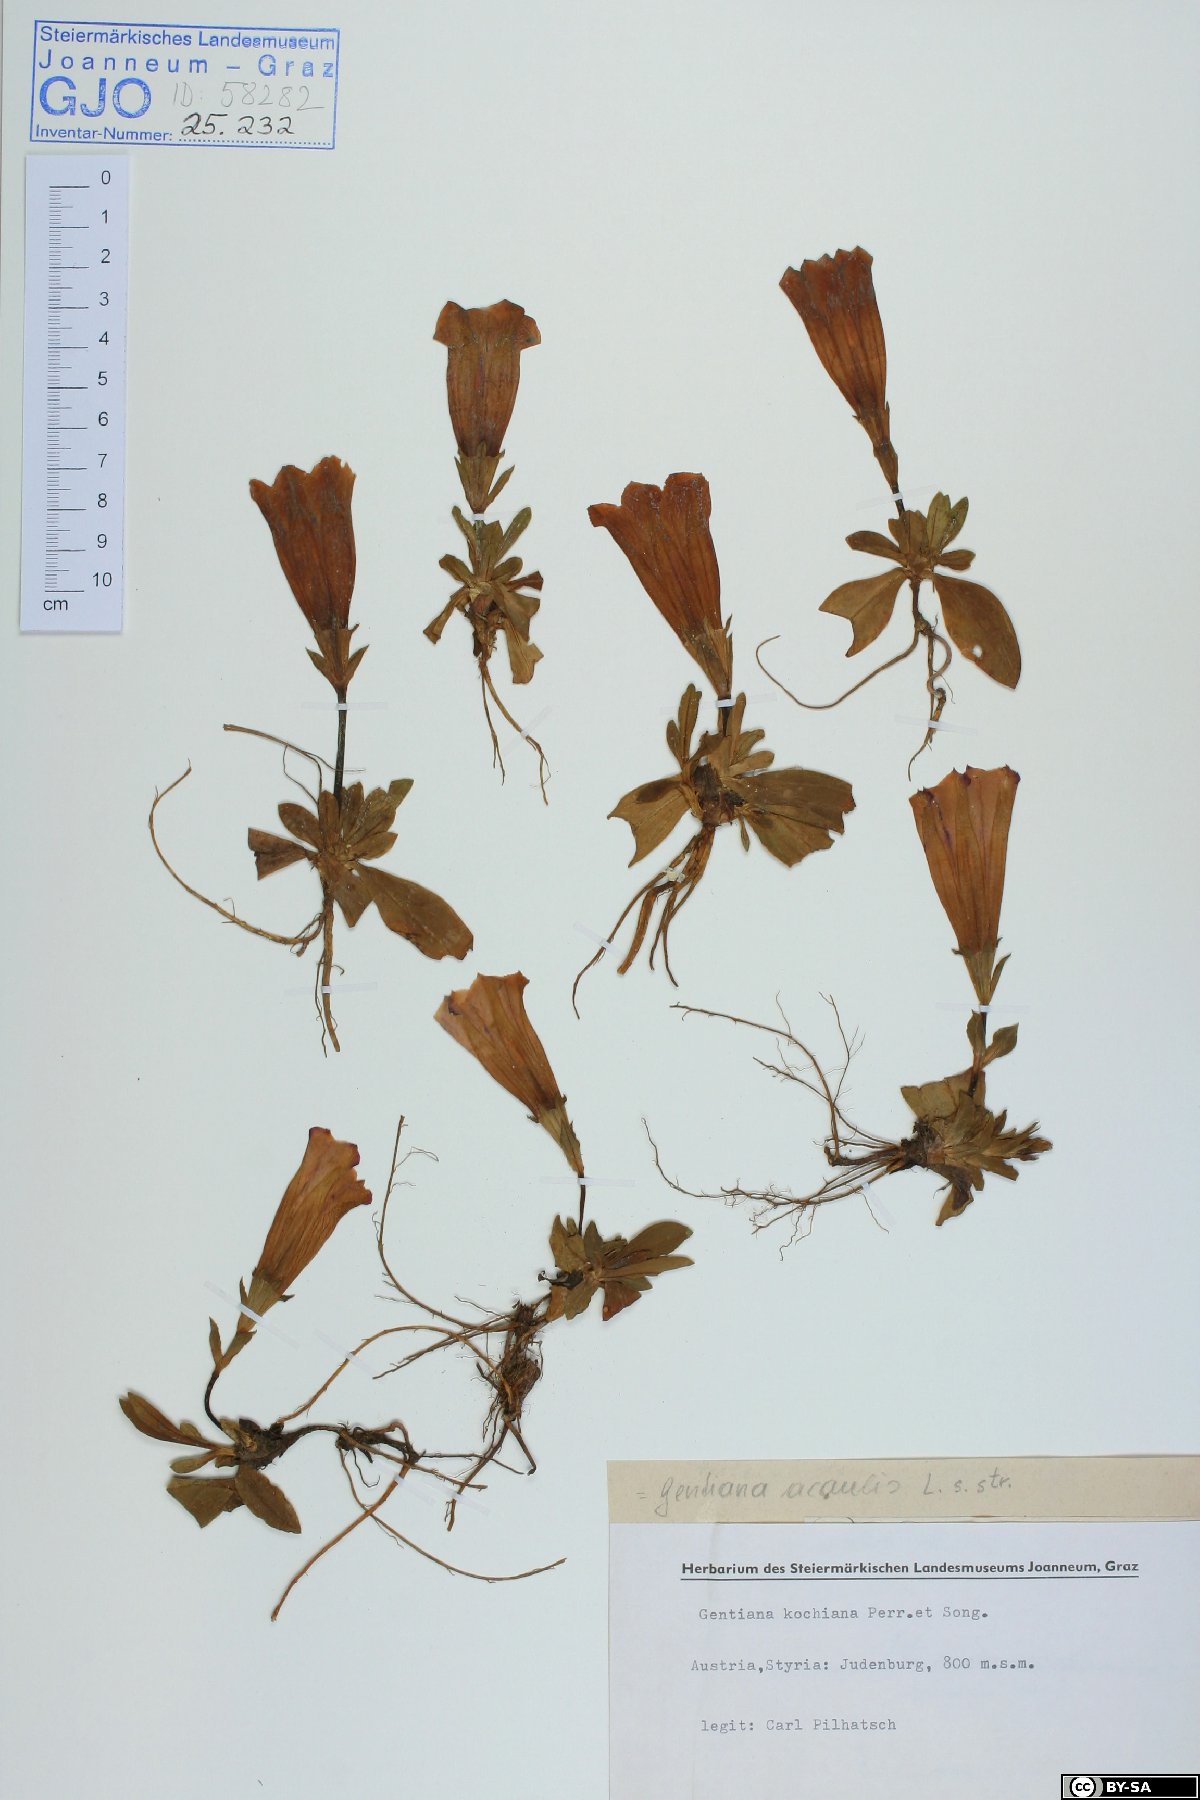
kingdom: Plantae
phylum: Tracheophyta
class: Magnoliopsida
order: Gentianales
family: Gentianaceae
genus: Gentiana
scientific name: Gentiana acaulis
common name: Trumpet gentian
